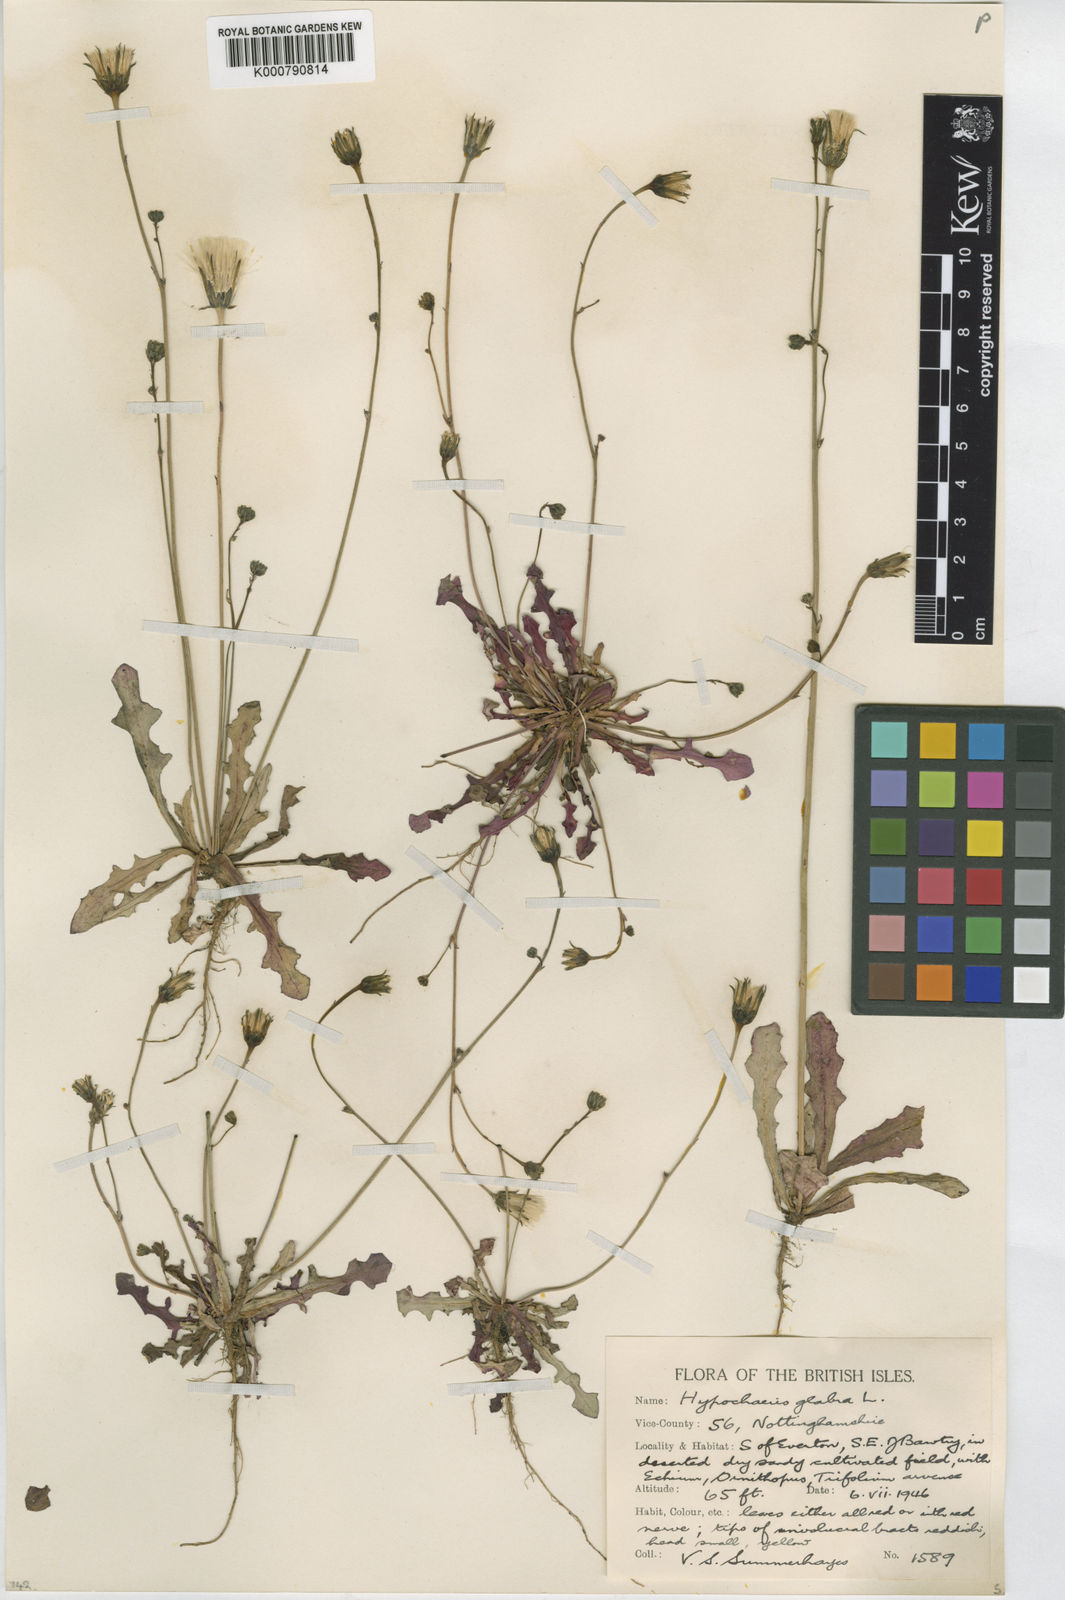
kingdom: Plantae
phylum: Tracheophyta
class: Magnoliopsida
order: Asterales
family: Asteraceae
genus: Hypochaeris
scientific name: Hypochaeris glabra
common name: Smooth catsear
